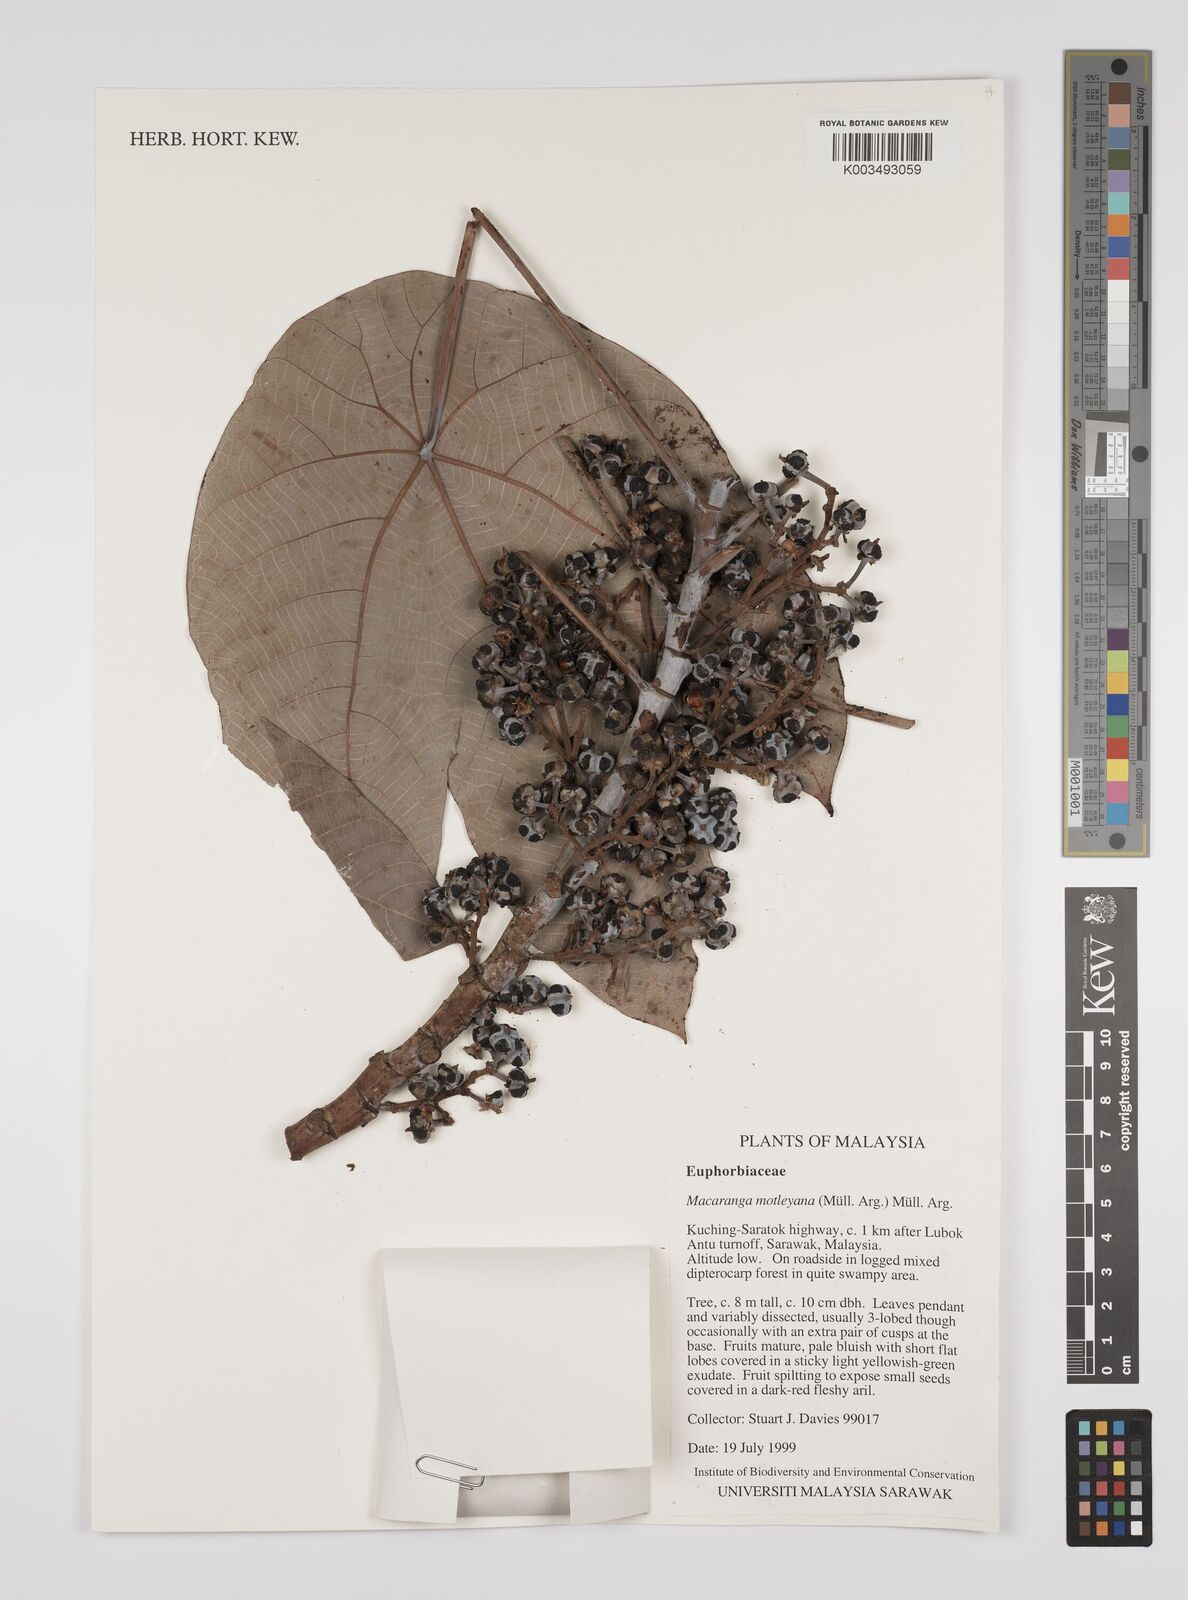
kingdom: Plantae
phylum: Tracheophyta
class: Magnoliopsida
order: Malpighiales
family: Euphorbiaceae
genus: Macaranga
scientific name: Macaranga motleyana
